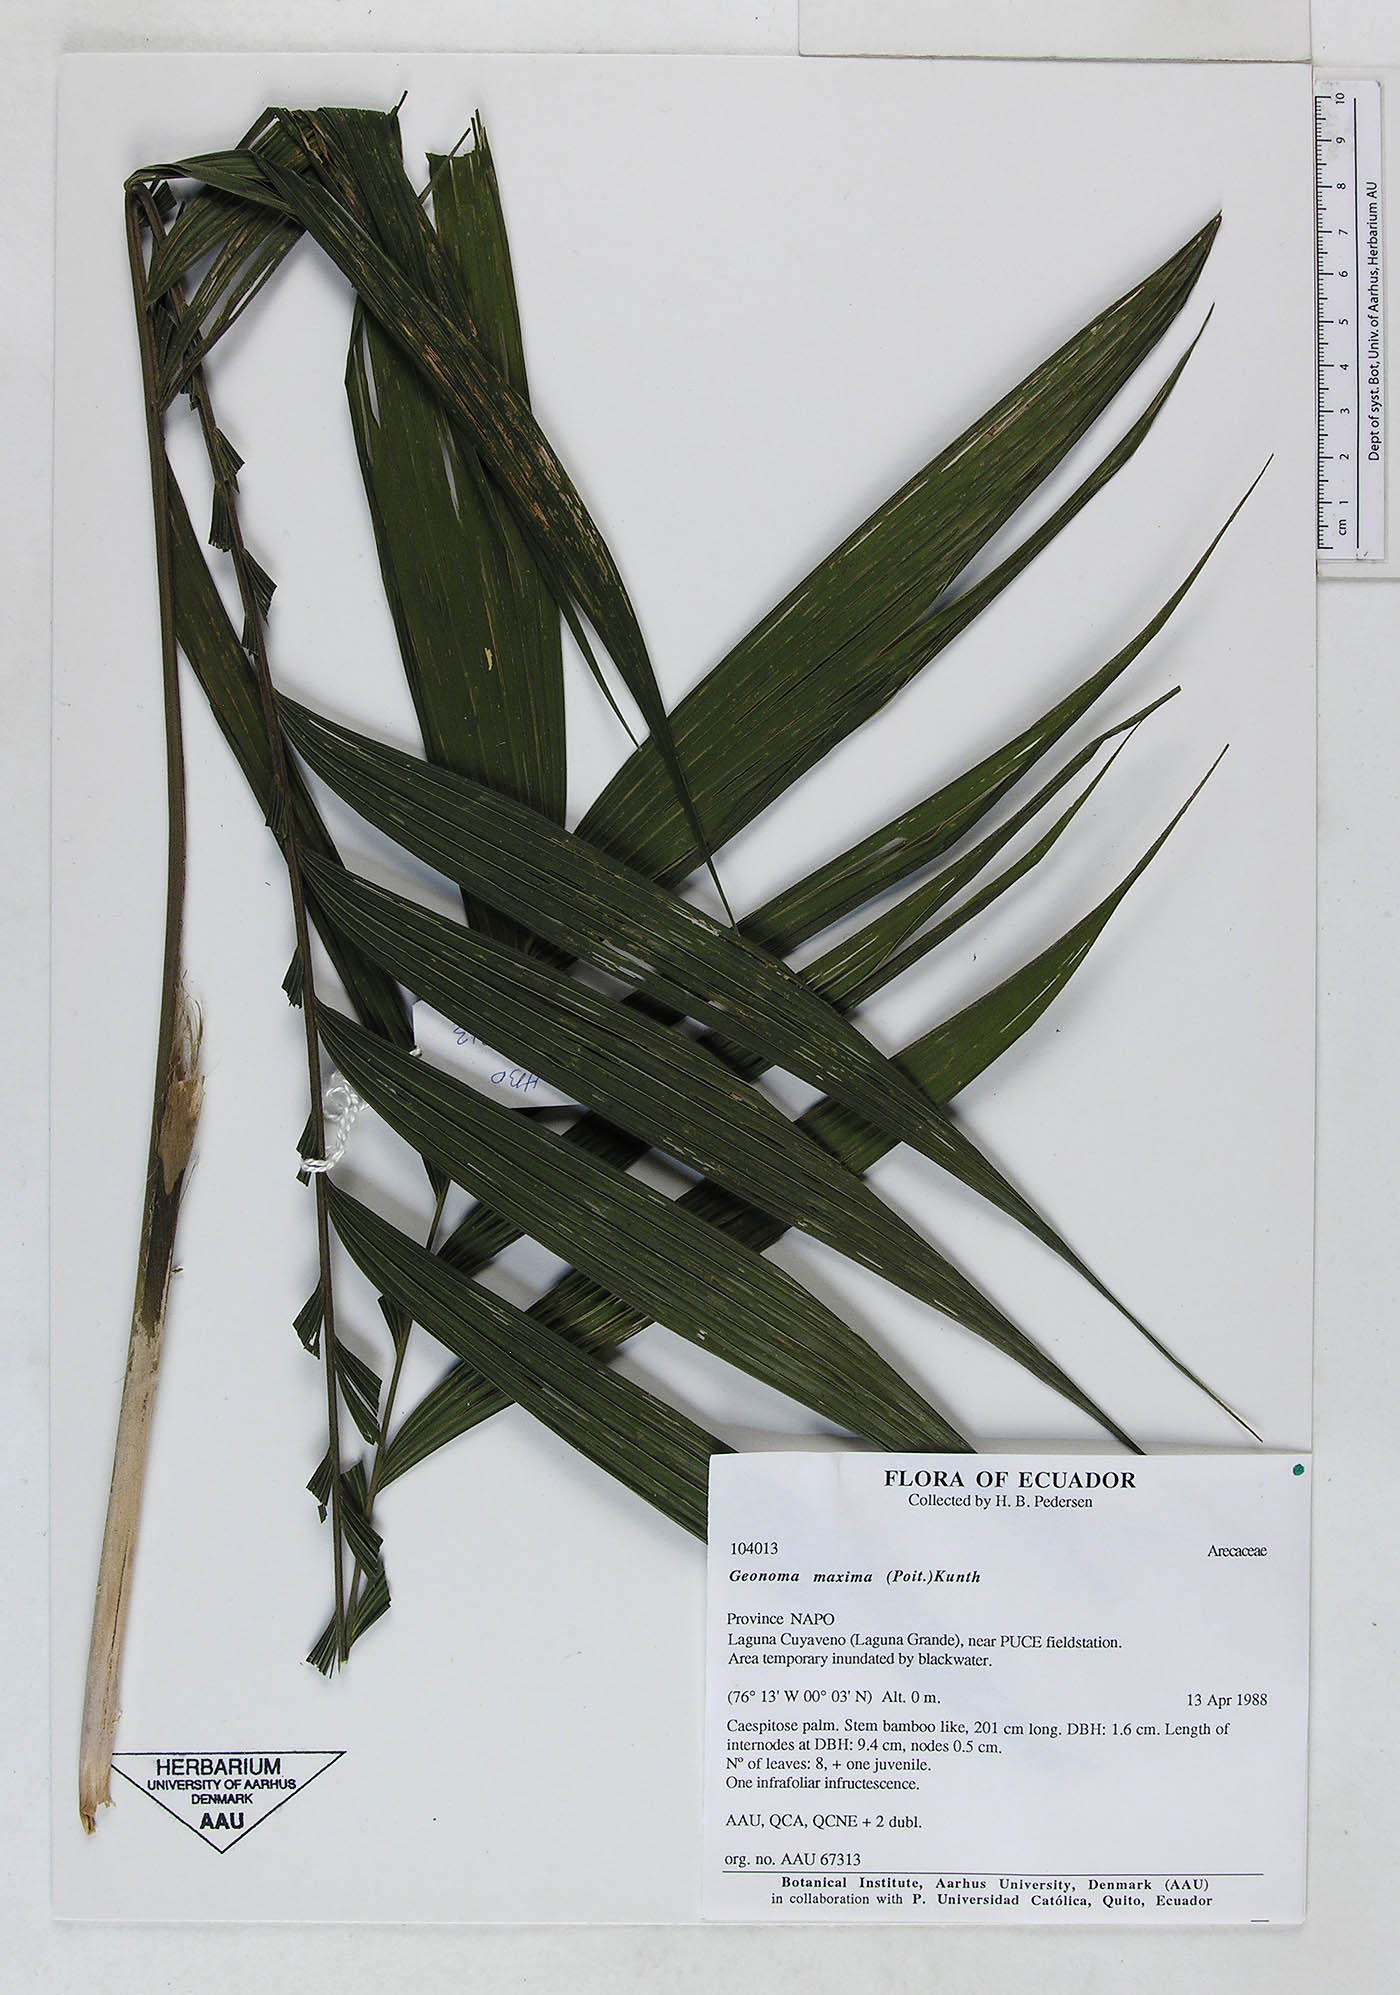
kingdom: Plantae
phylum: Tracheophyta
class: Liliopsida
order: Arecales
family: Arecaceae
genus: Geonoma
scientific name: Geonoma maxima
